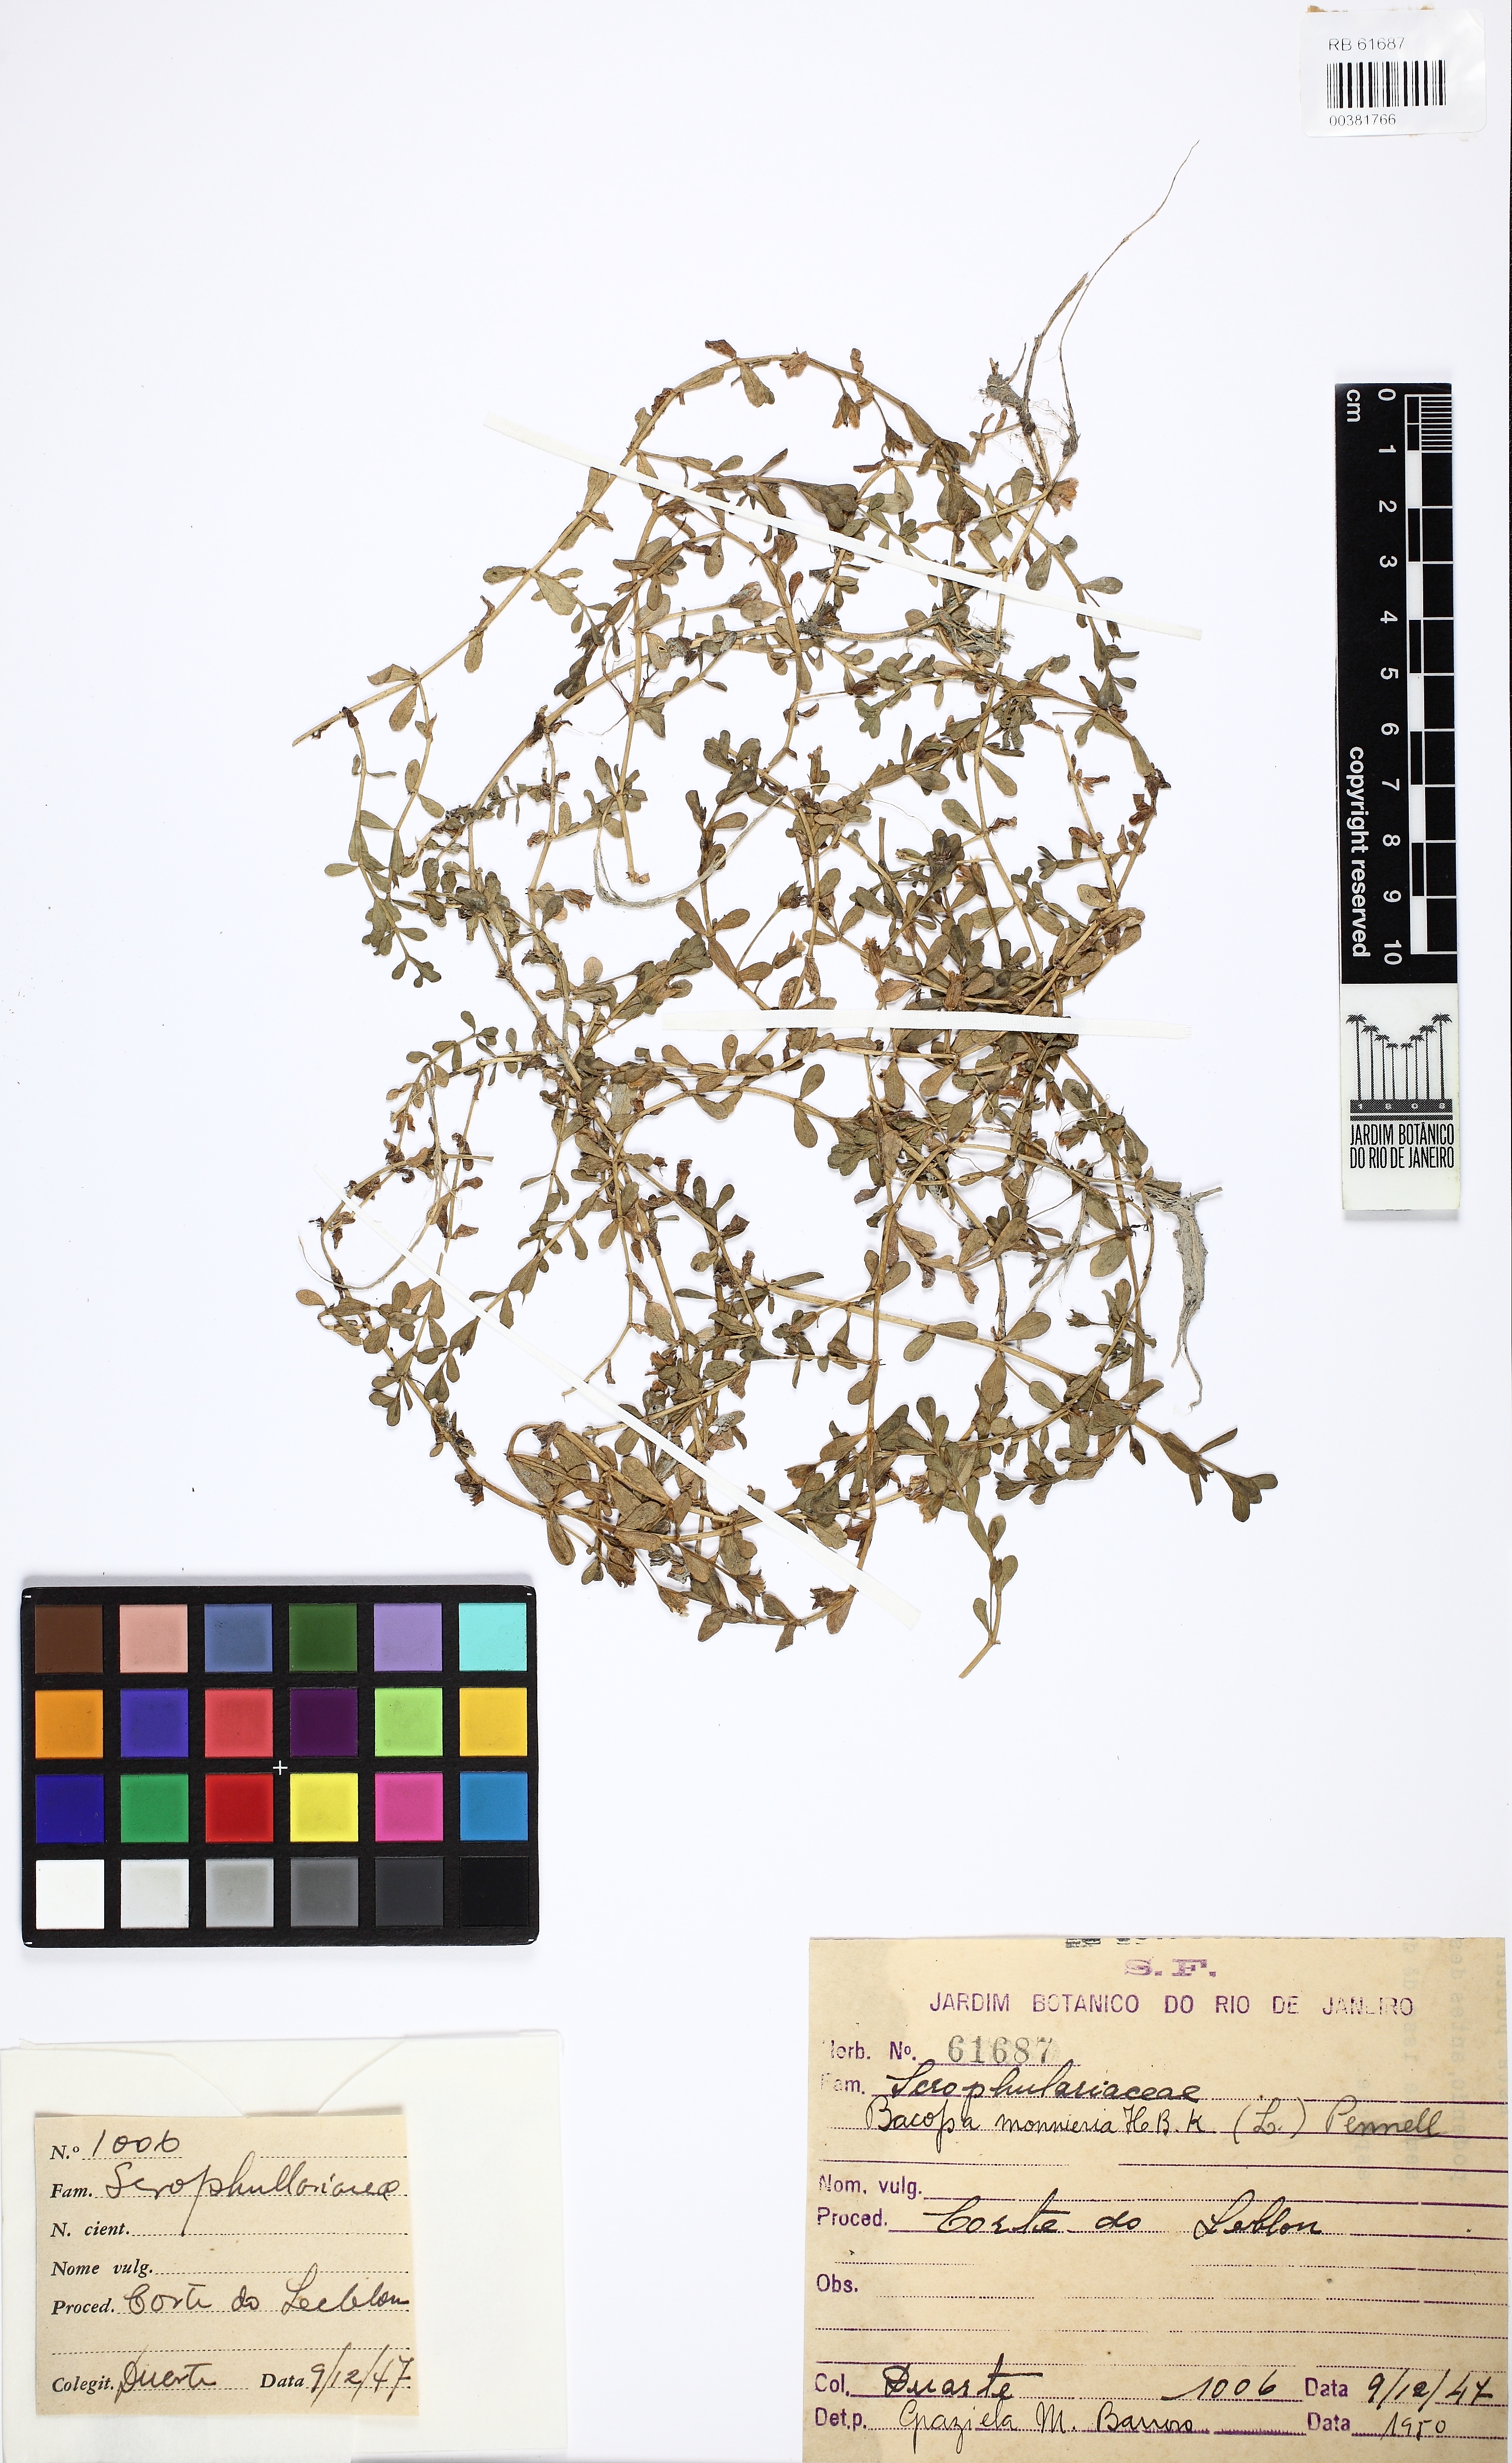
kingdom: Plantae
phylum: Tracheophyta
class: Magnoliopsida
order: Lamiales
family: Plantaginaceae
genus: Bacopa
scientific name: Bacopa monnieri
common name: Indian-pennywort
